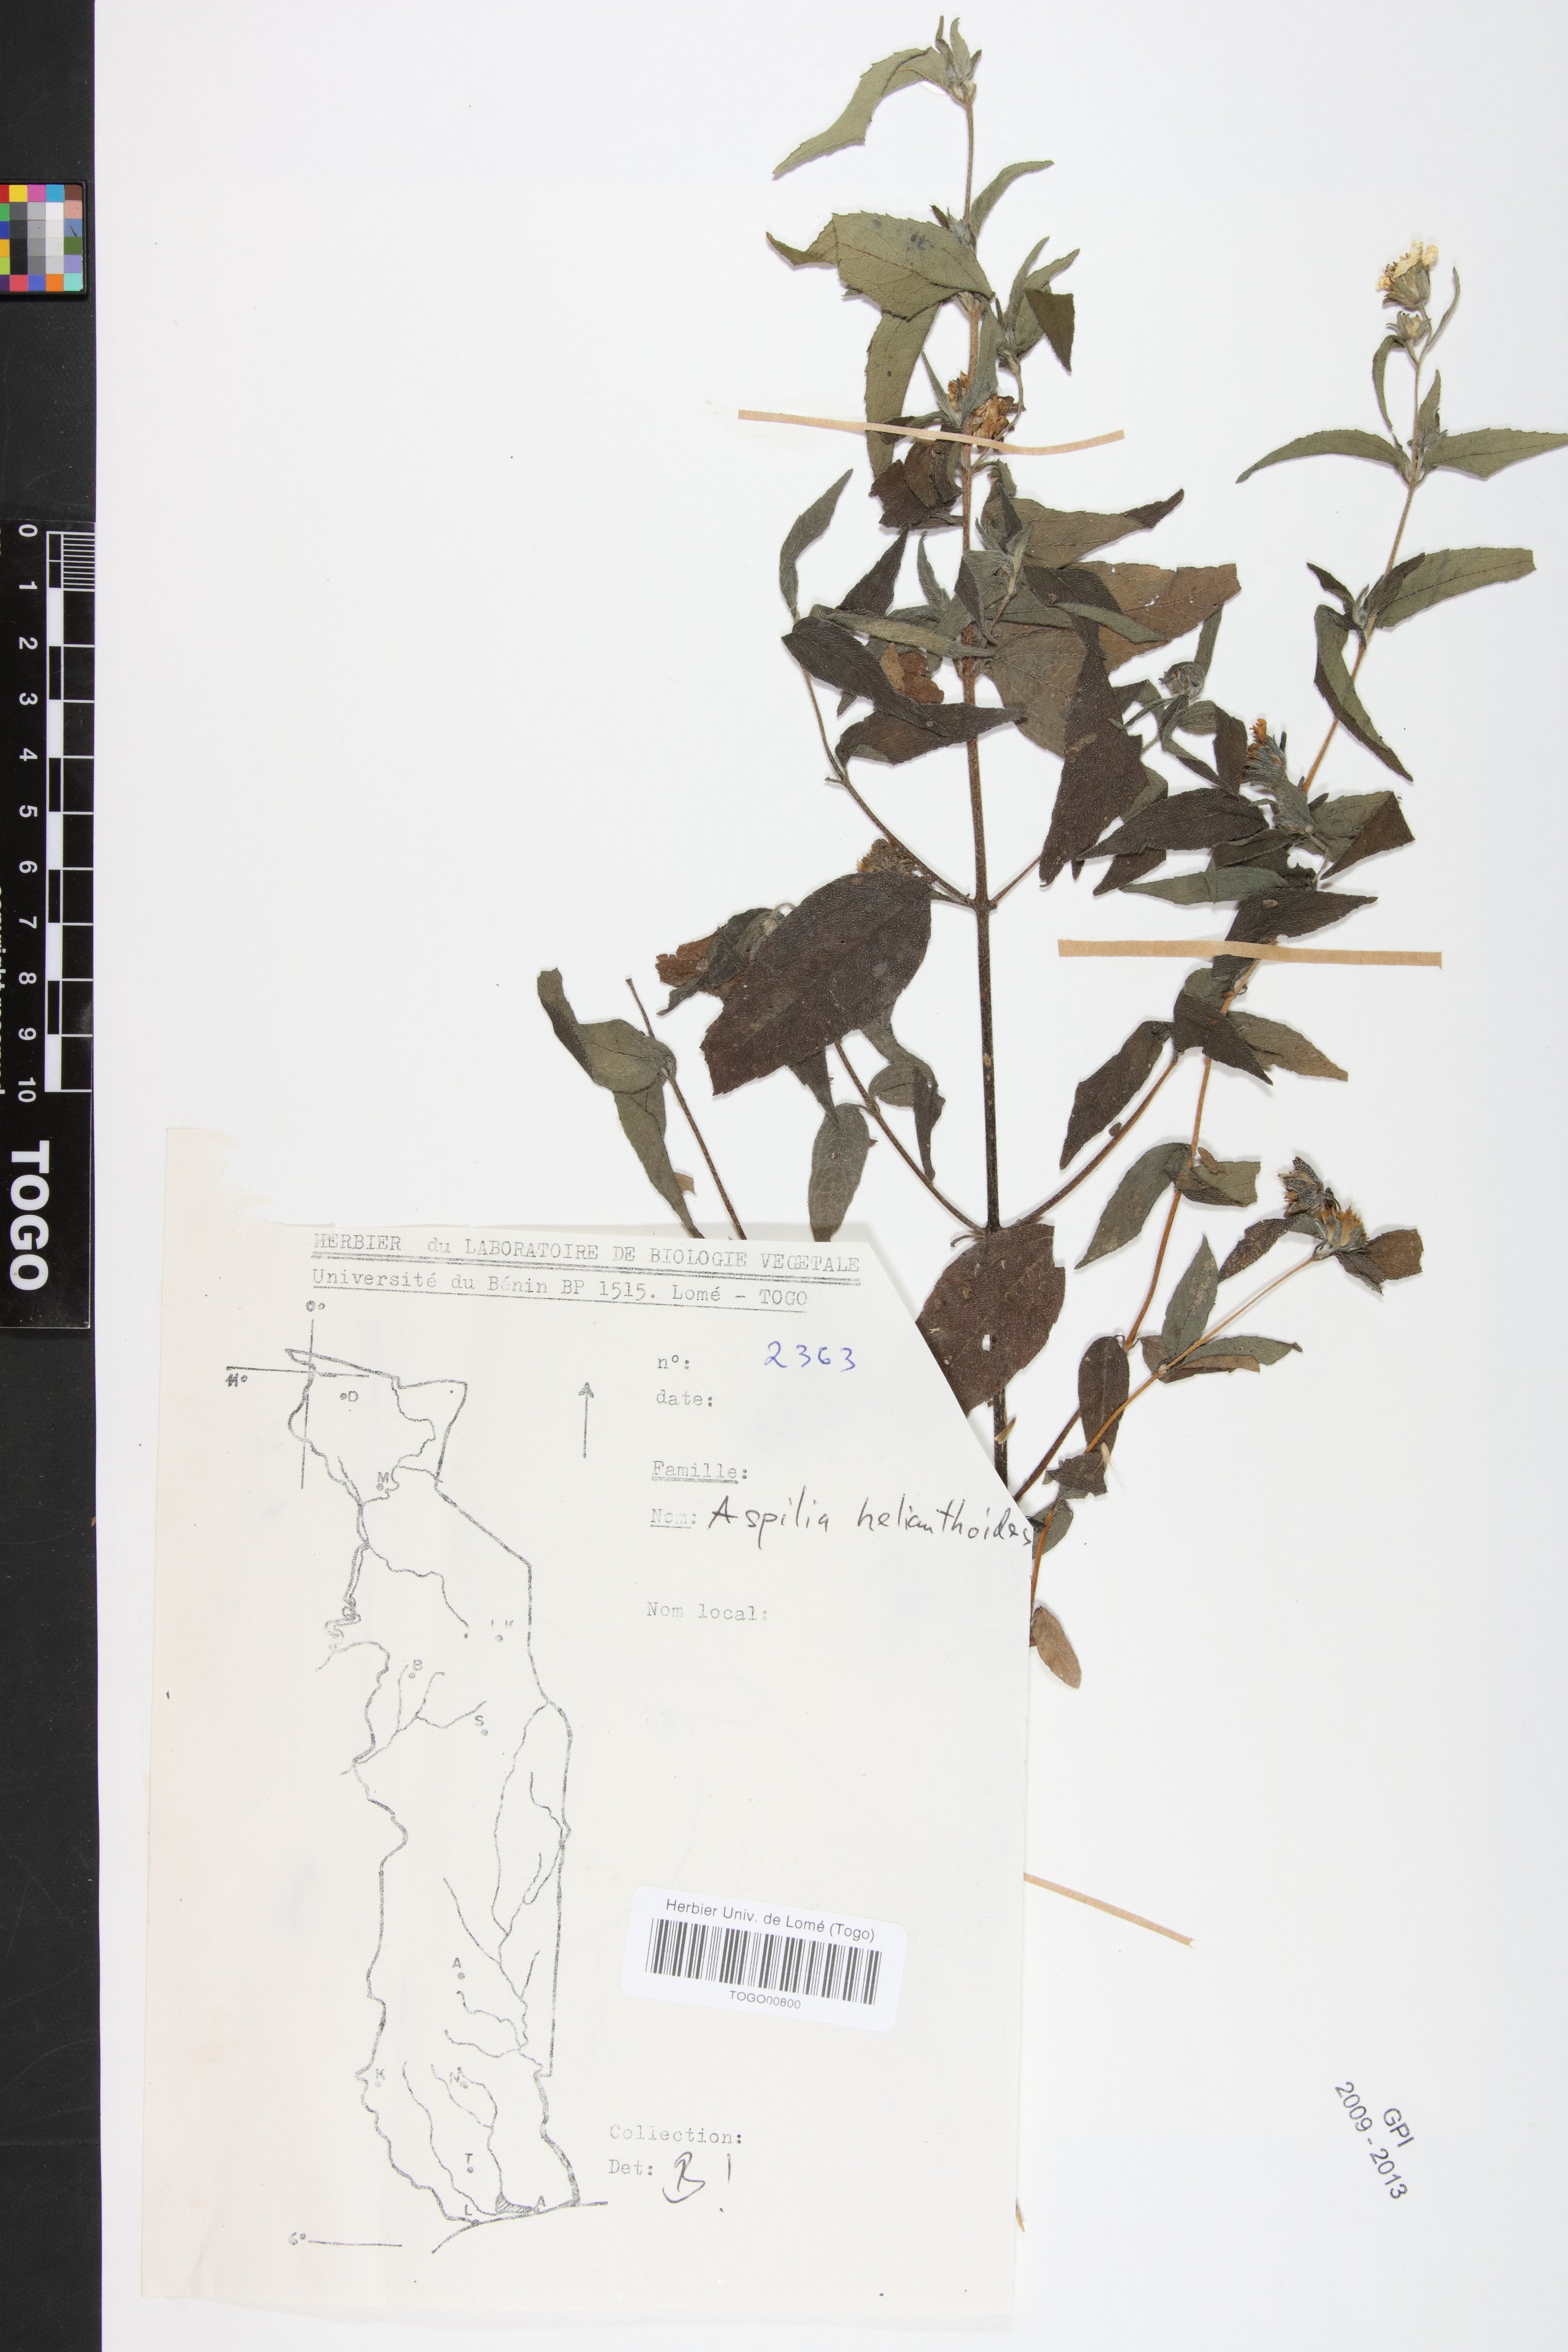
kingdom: Plantae
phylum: Tracheophyta
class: Magnoliopsida
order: Asterales
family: Asteraceae
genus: Aspilia
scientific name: Aspilia helianthoides
